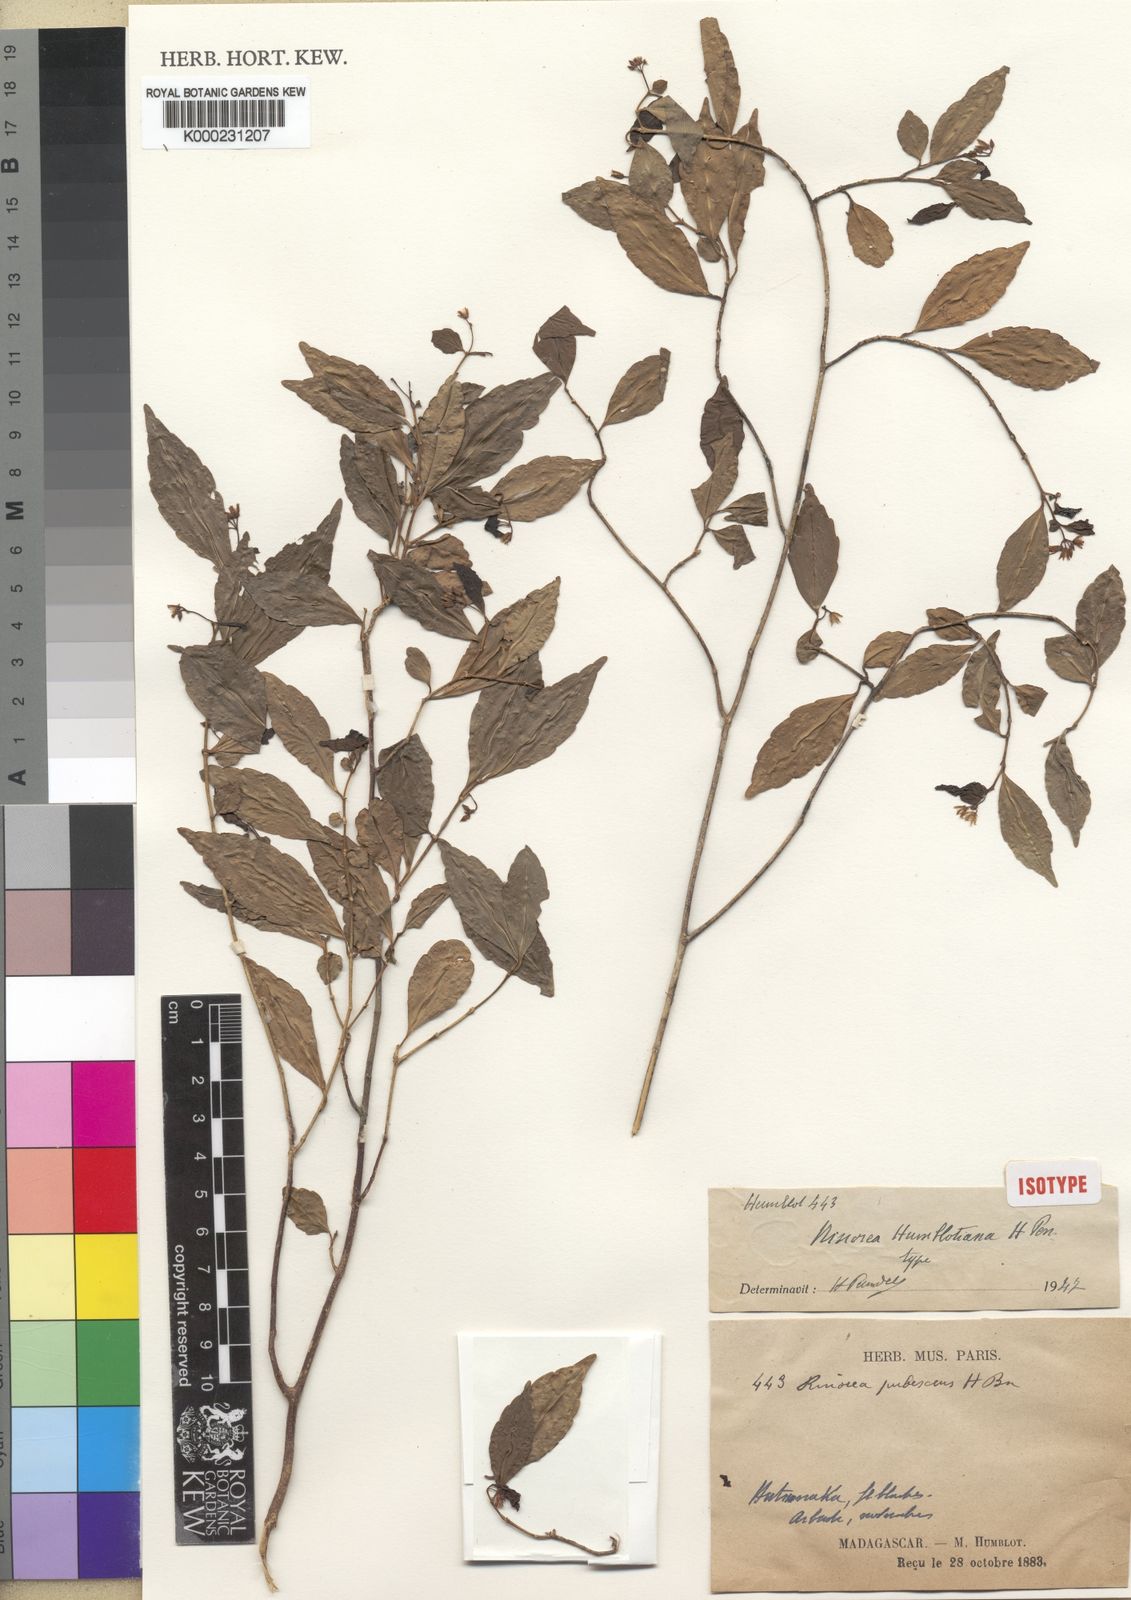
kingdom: Plantae
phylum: Tracheophyta
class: Magnoliopsida
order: Malpighiales
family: Violaceae
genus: Rinorea
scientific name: Rinorea angustifolia
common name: White violet-bush
